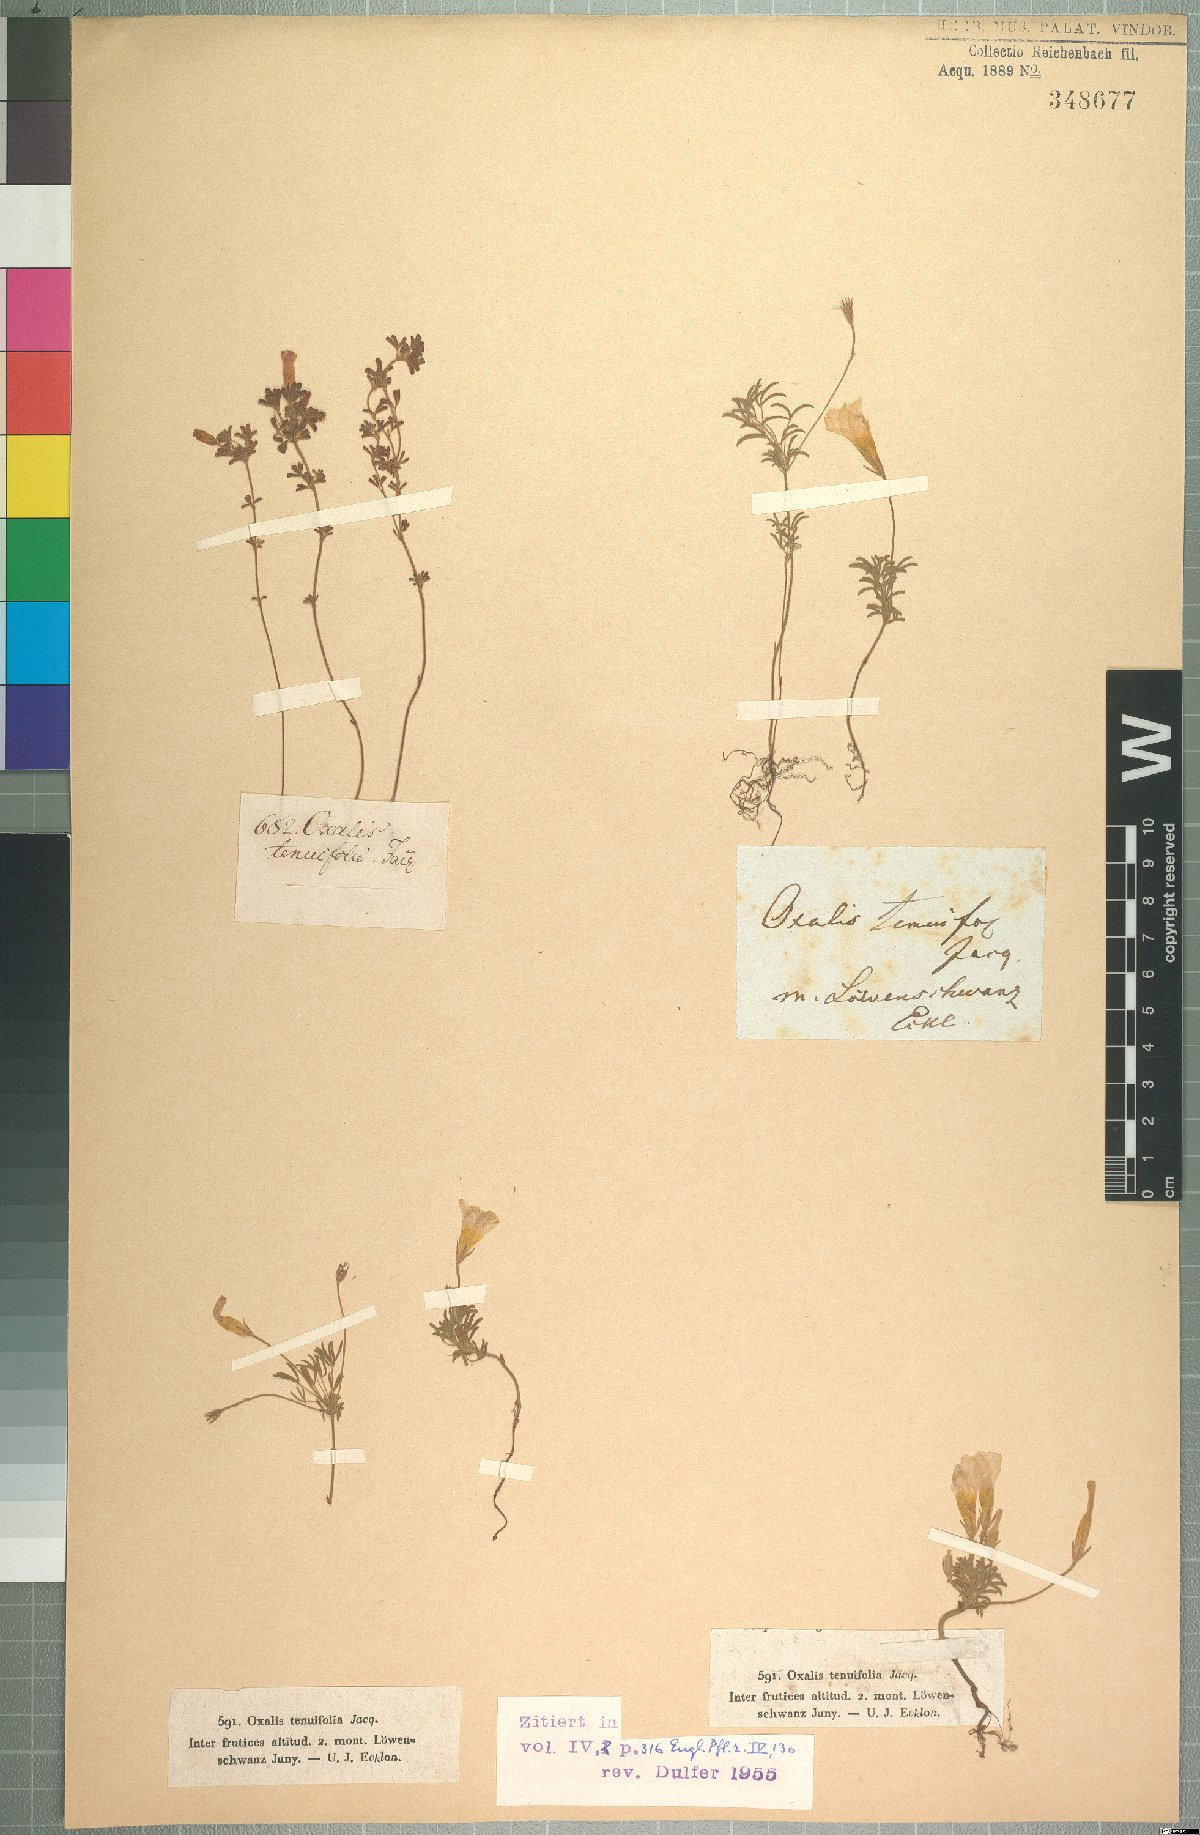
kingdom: Plantae
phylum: Tracheophyta
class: Magnoliopsida
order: Oxalidales
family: Oxalidaceae
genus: Oxalis
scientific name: Oxalis falcatula
